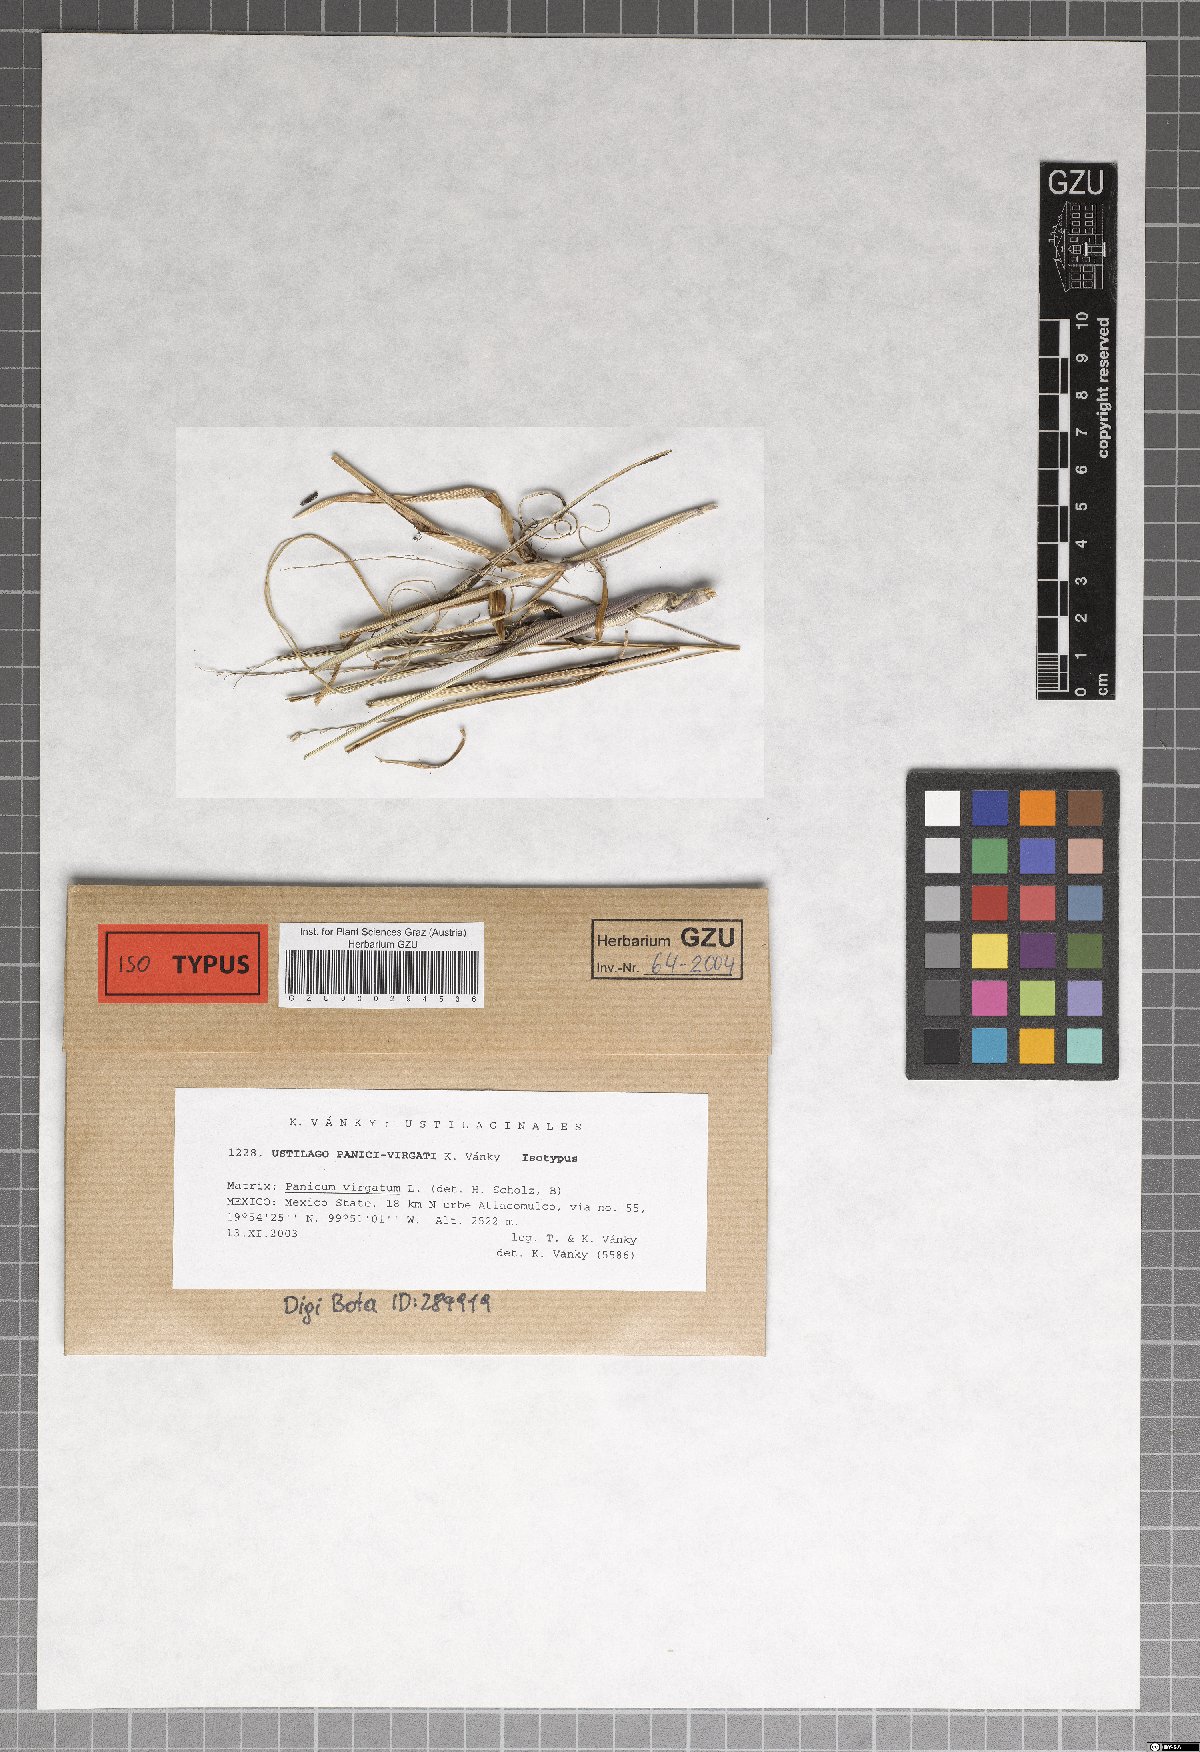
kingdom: Fungi
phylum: Basidiomycota
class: Ustilaginomycetes
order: Ustilaginales
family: Ustilaginaceae
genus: Ustilago
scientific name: Ustilago panici-virgati
